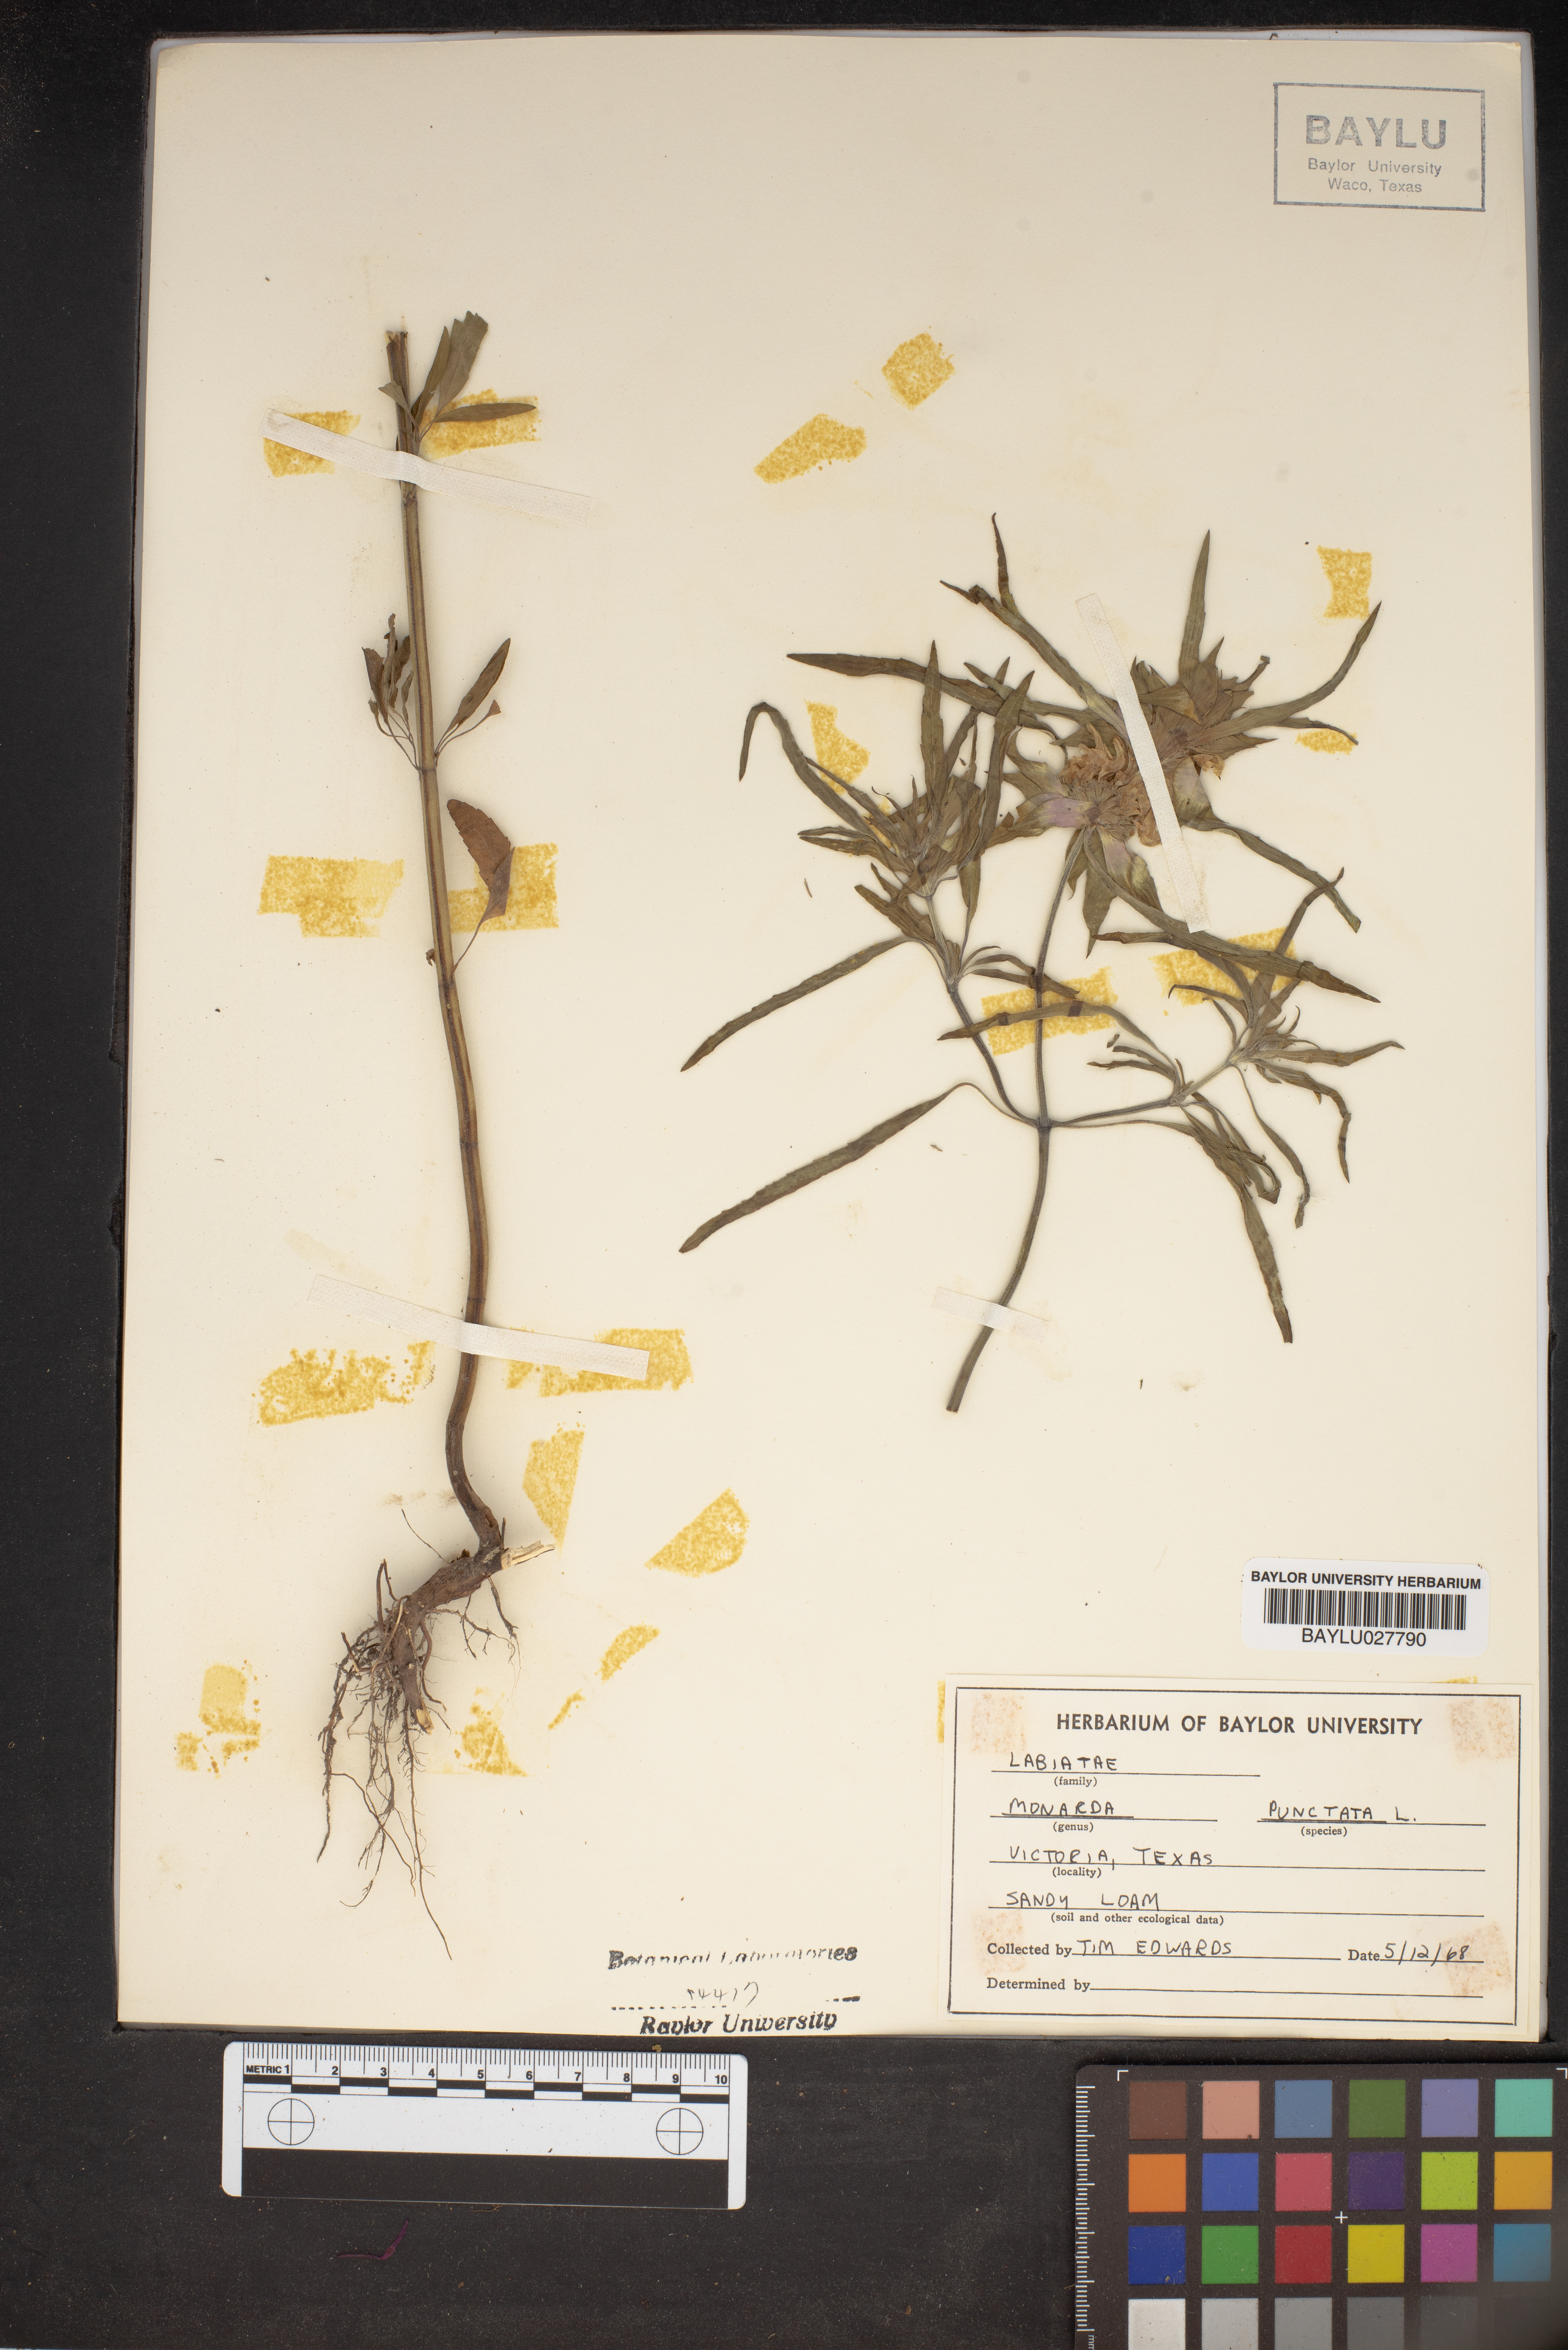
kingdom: Plantae
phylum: Tracheophyta
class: Magnoliopsida
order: Lamiales
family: Lamiaceae
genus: Monarda
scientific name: Monarda punctata
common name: Dotted monarda
